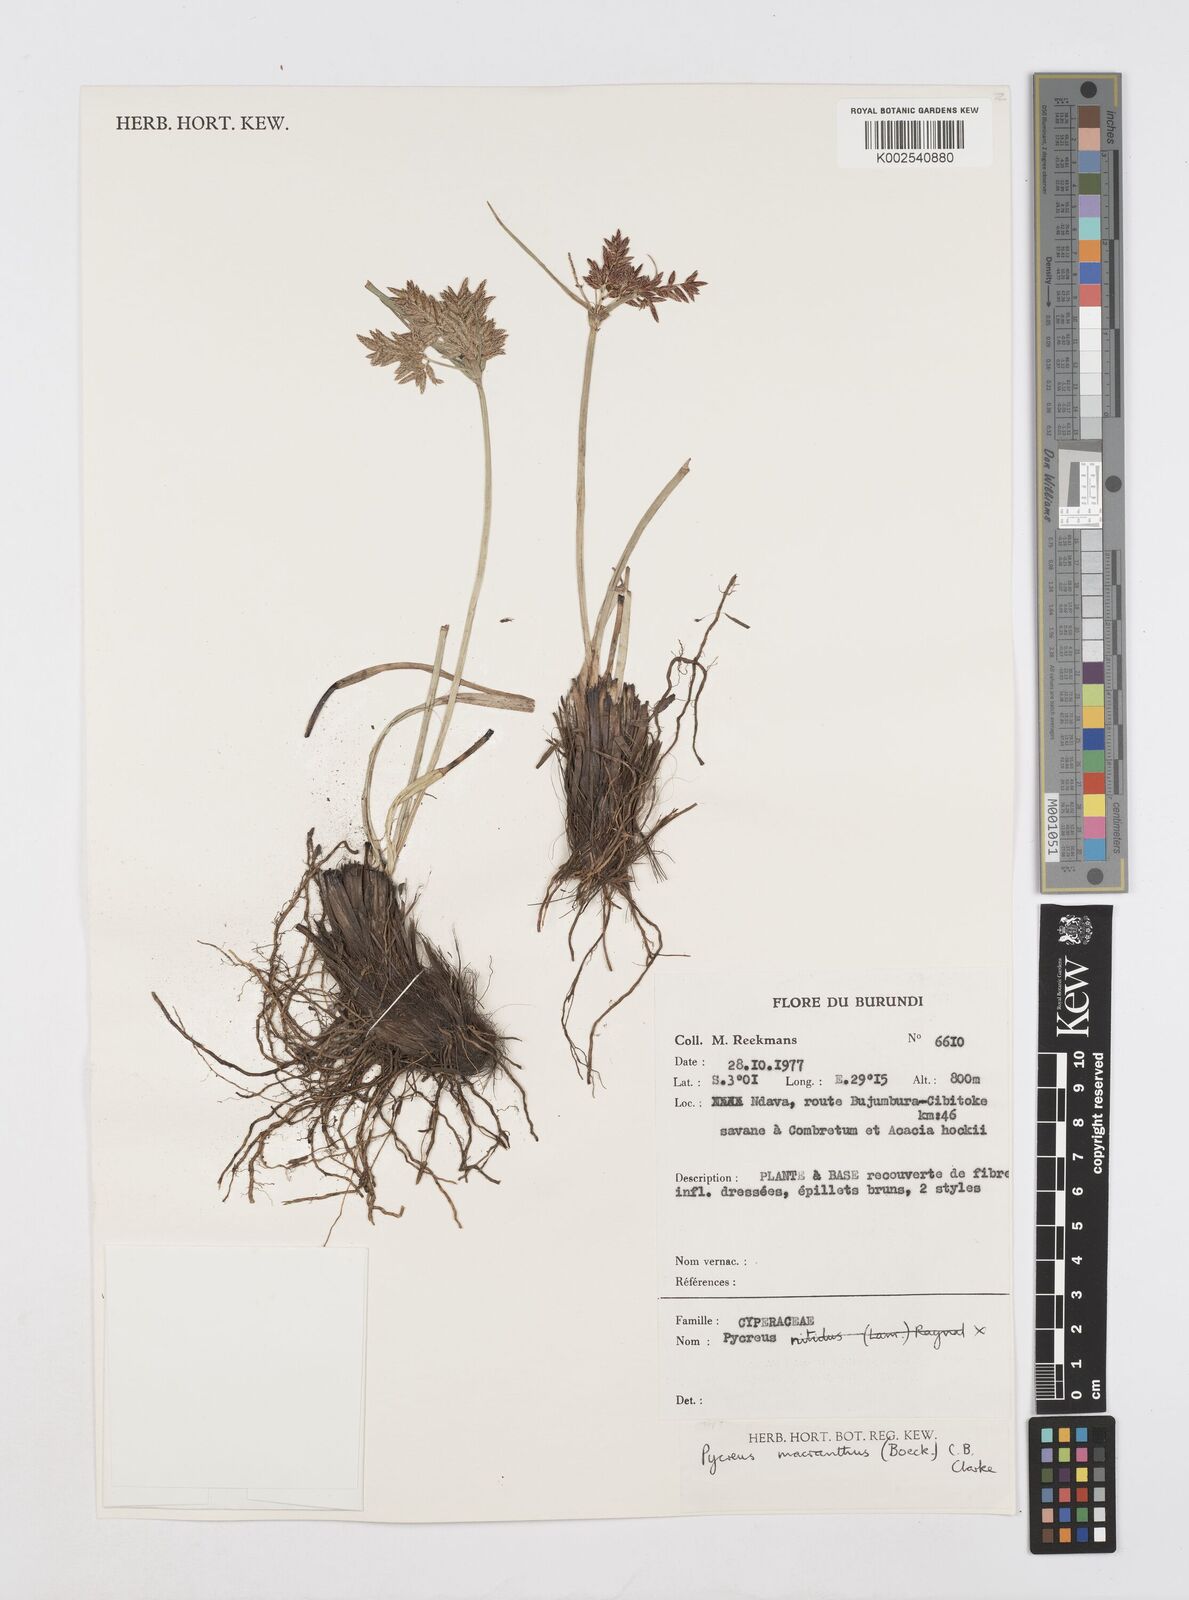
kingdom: Plantae
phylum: Tracheophyta
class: Liliopsida
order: Poales
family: Cyperaceae
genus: Cyperus
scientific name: Cyperus nigricans
